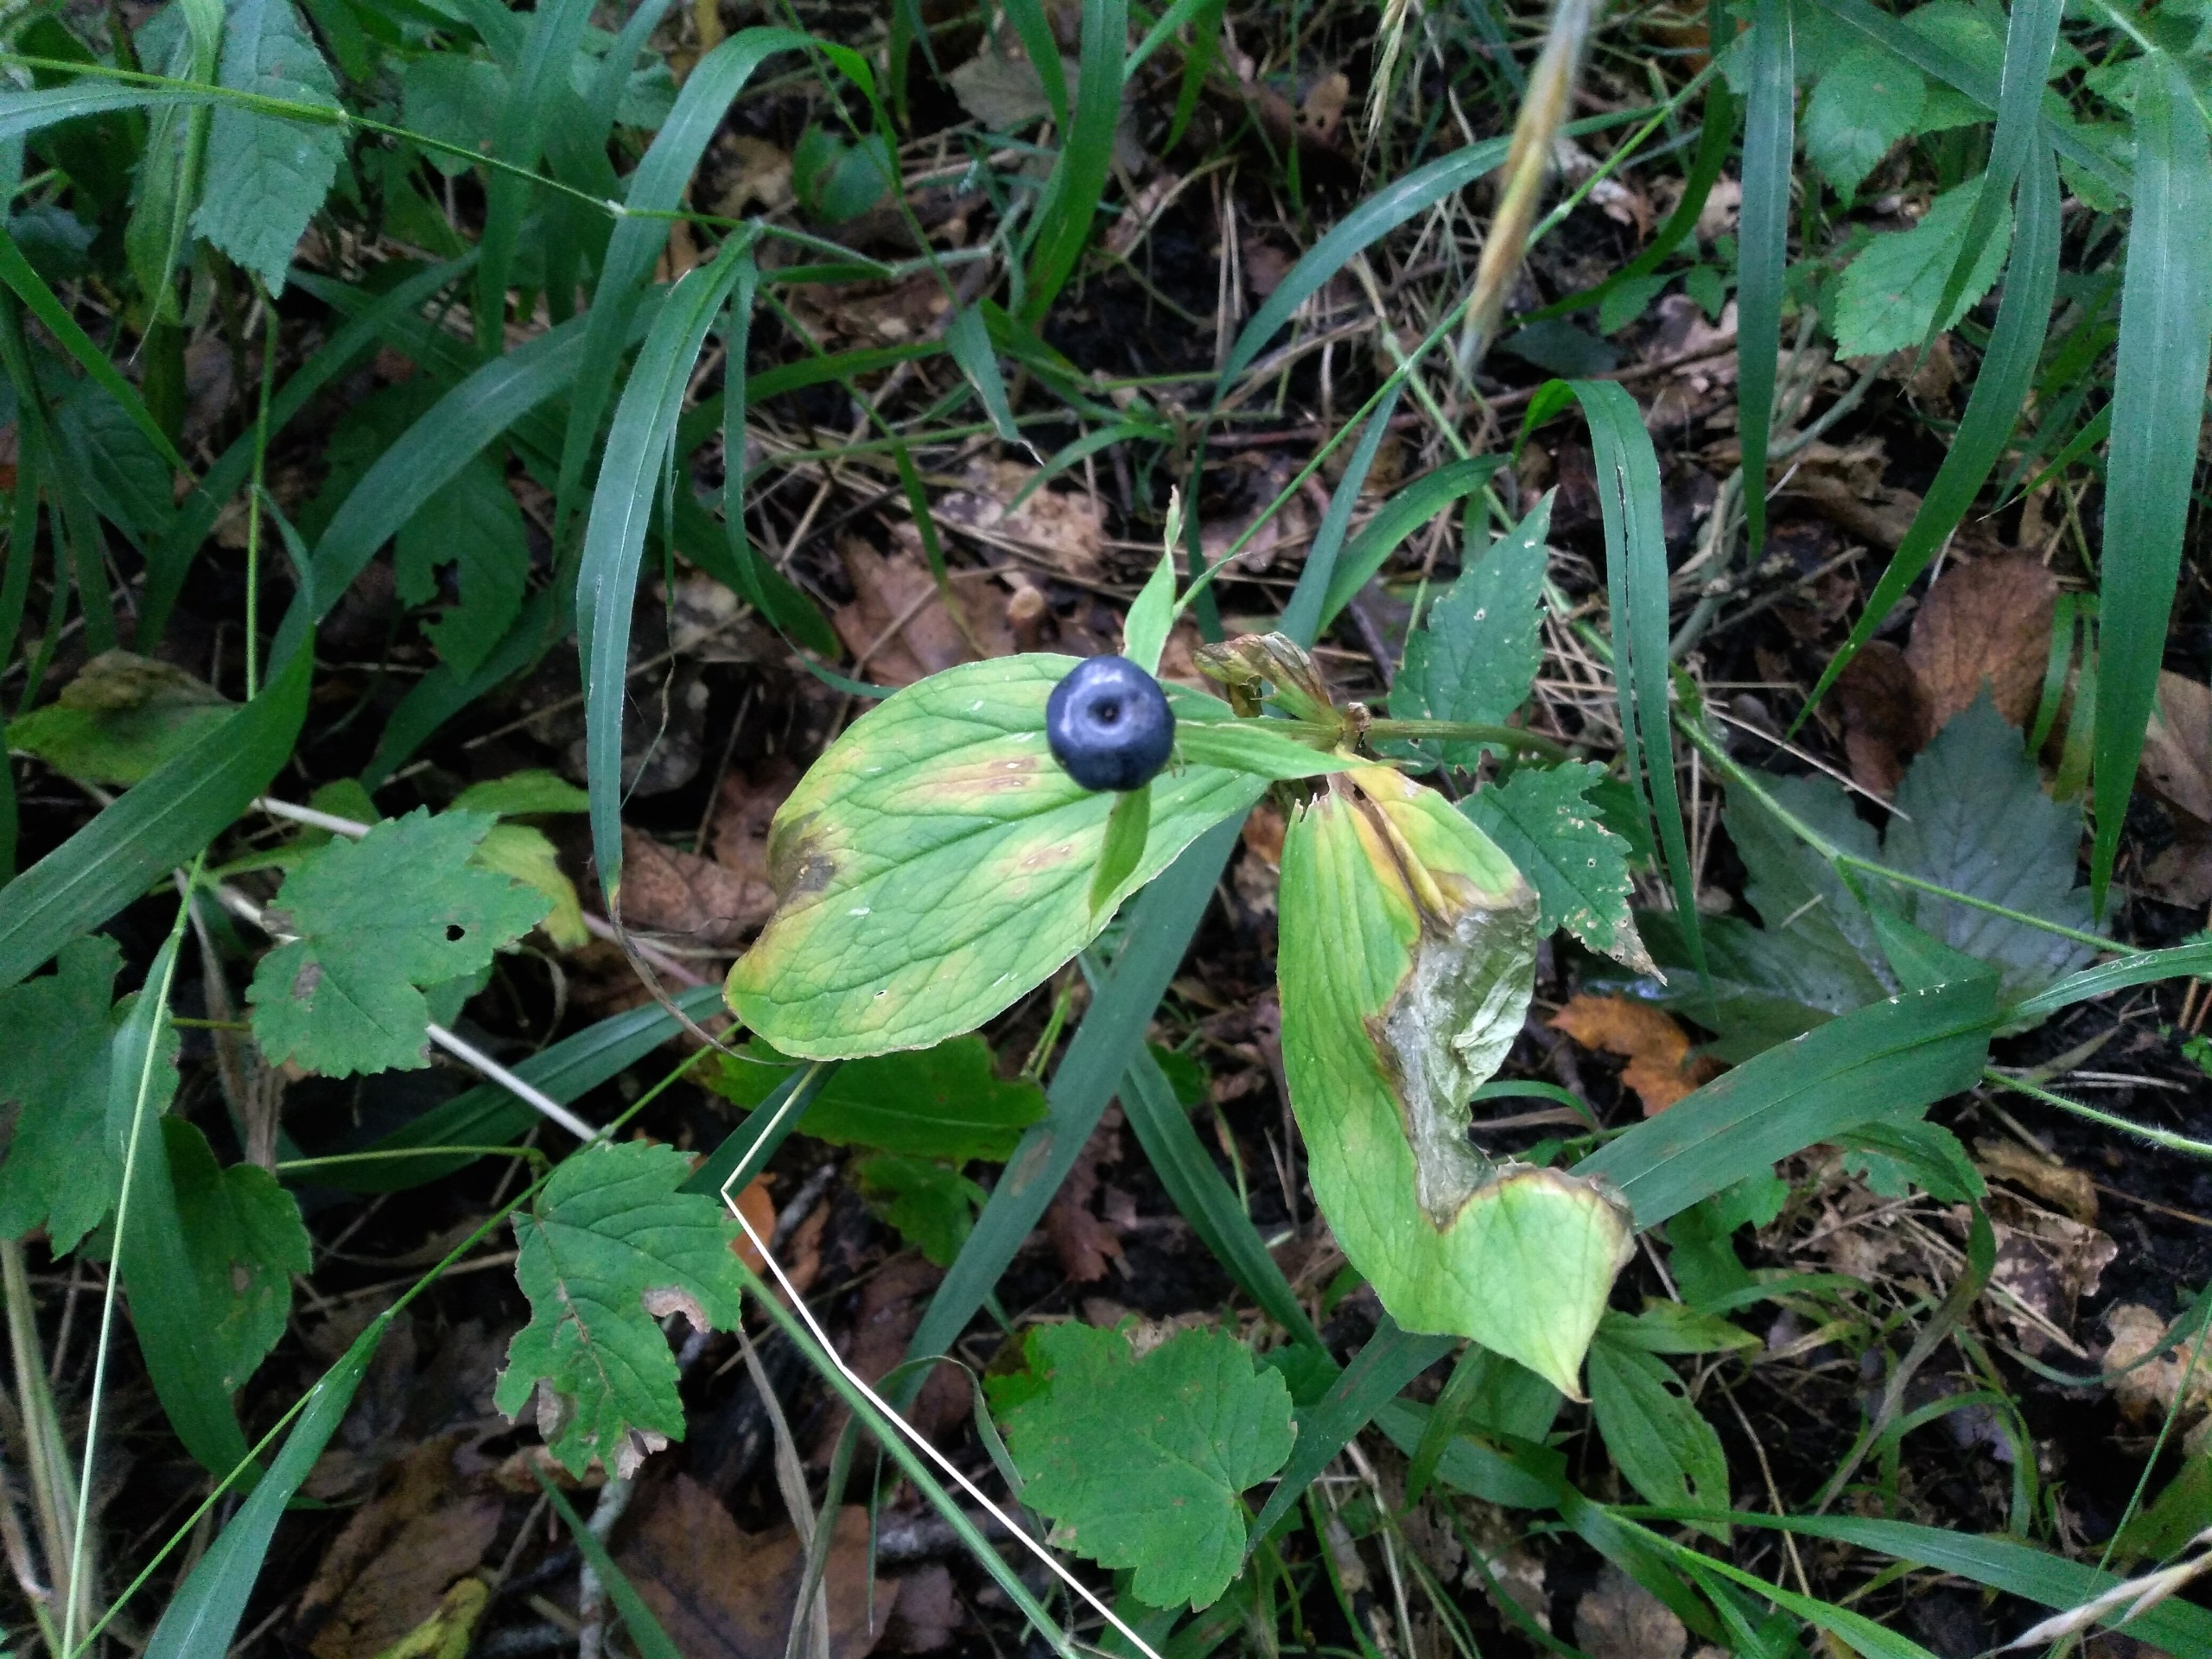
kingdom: Plantae
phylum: Tracheophyta
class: Liliopsida
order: Liliales
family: Melanthiaceae
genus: Paris
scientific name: Paris quadrifolia
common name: Firblad
